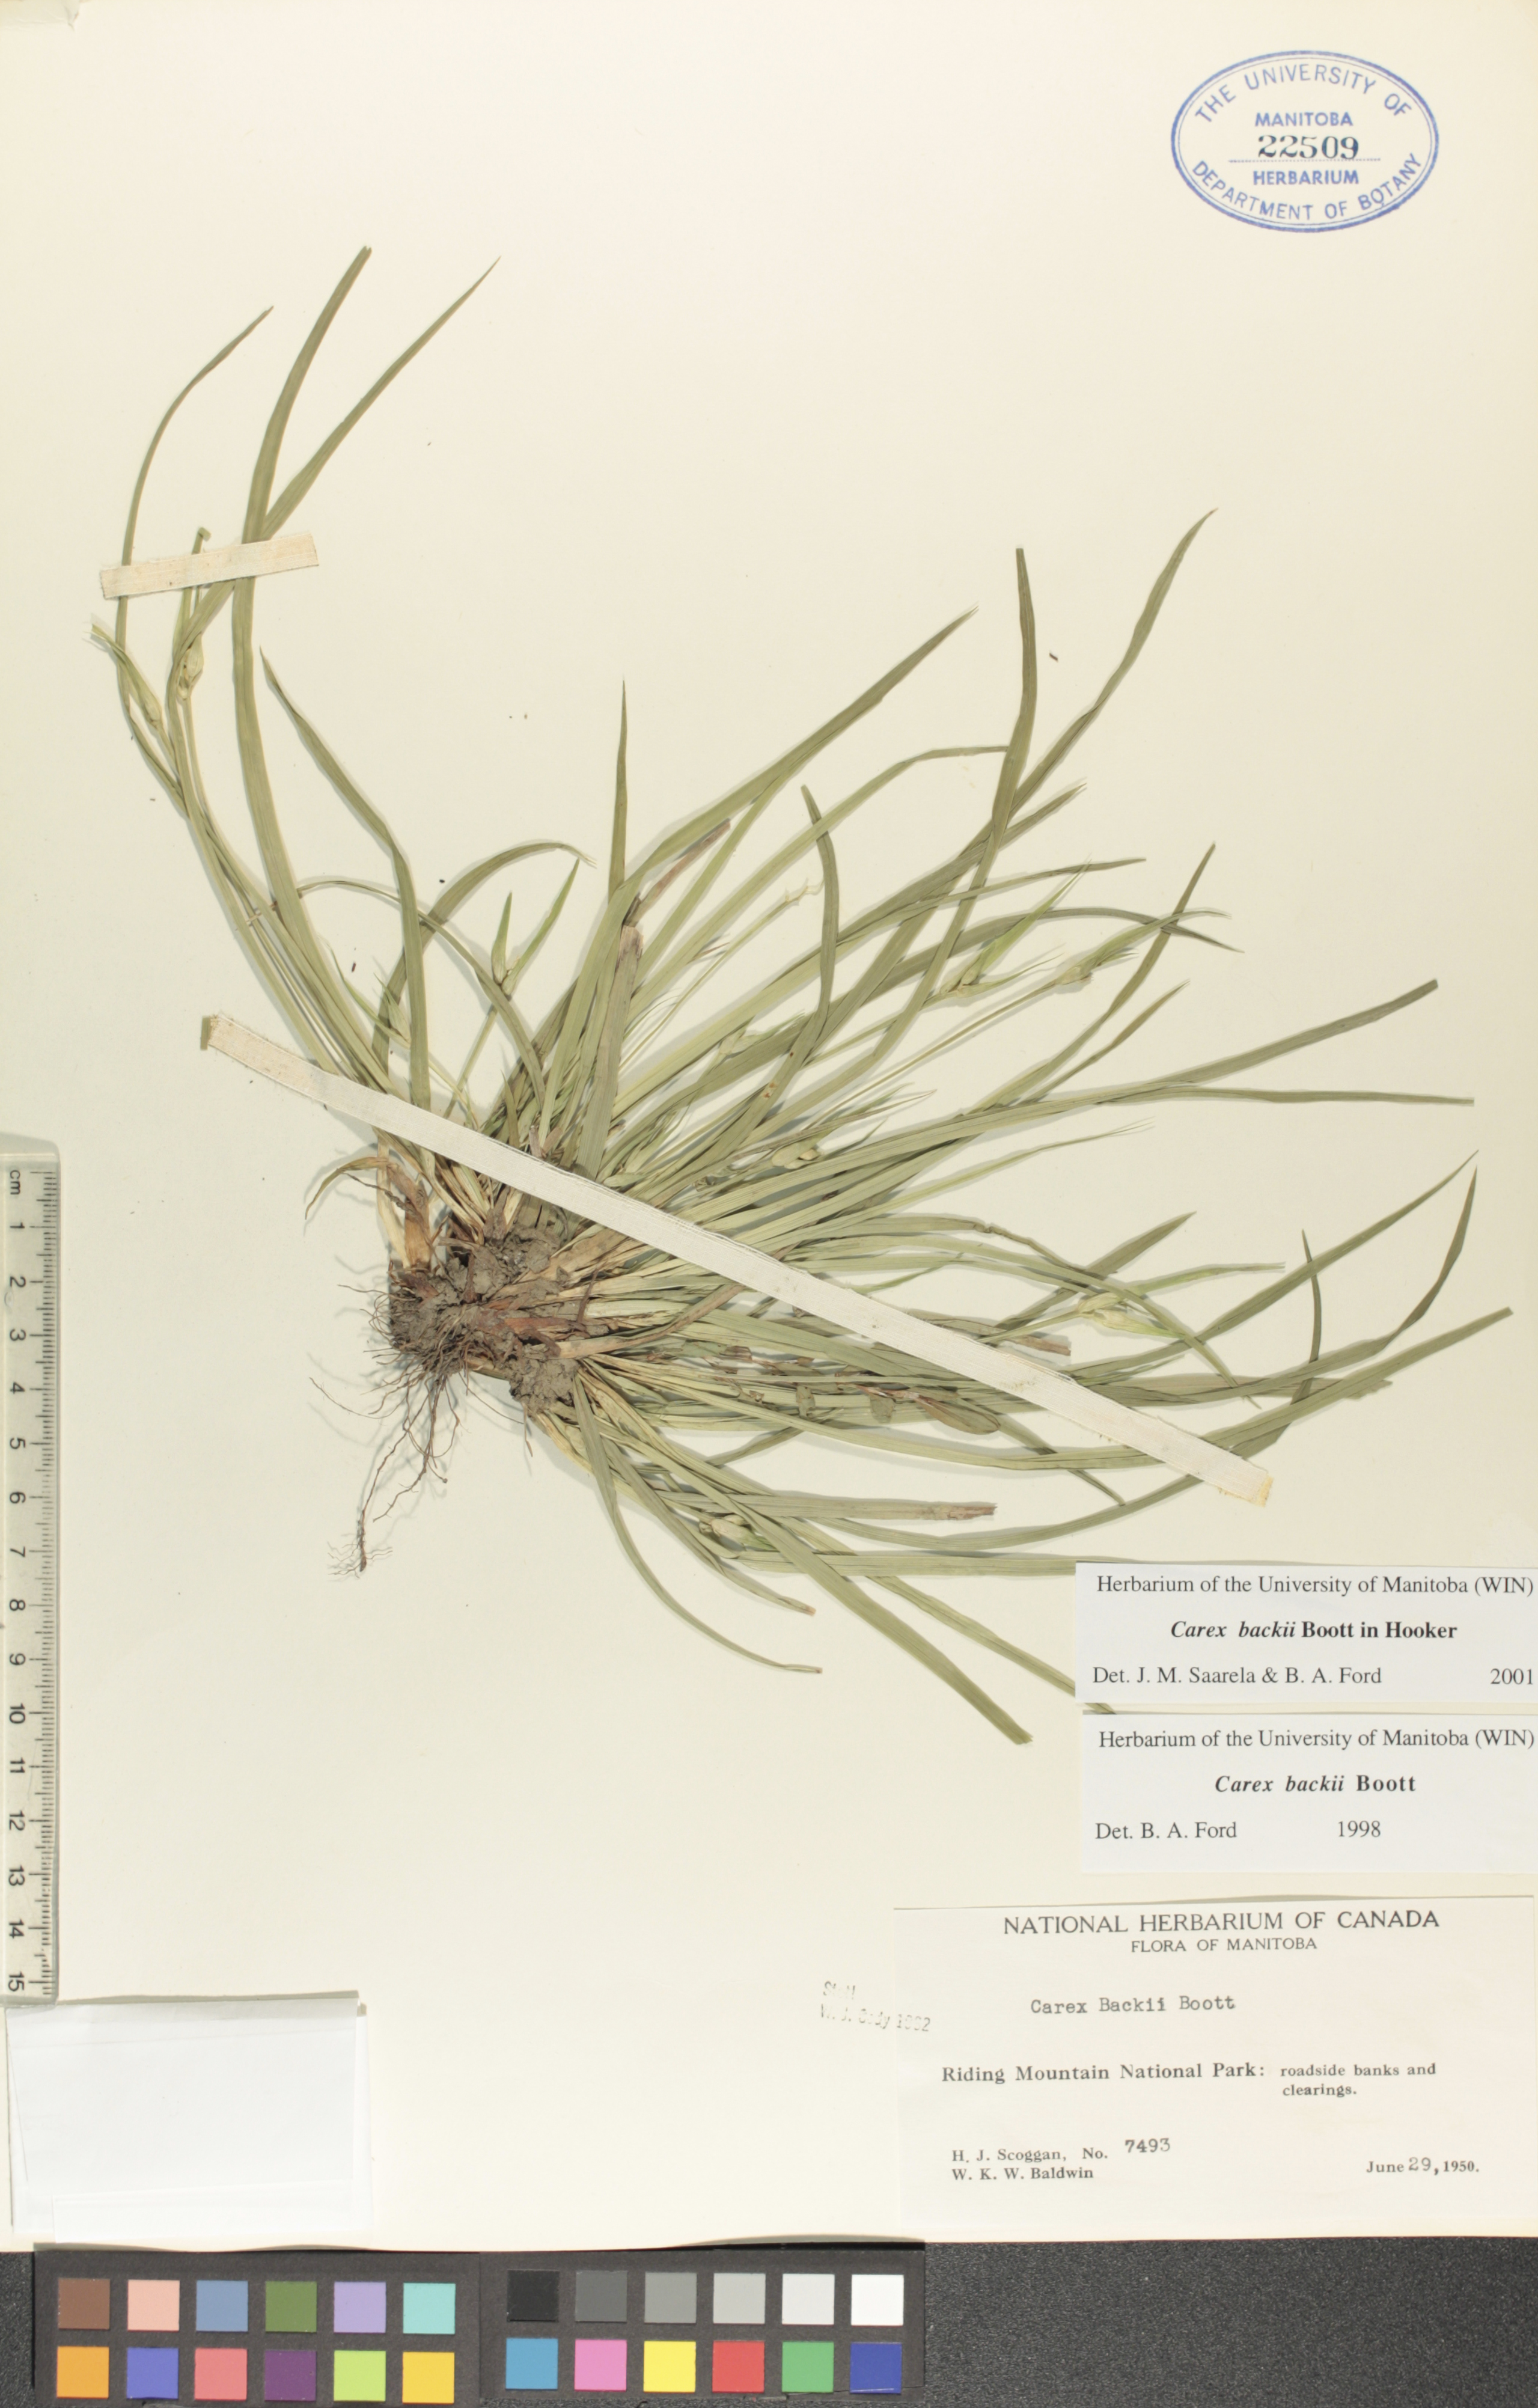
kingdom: Plantae
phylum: Tracheophyta
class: Liliopsida
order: Poales
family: Cyperaceae
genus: Carex
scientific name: Carex backii
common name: Back's sedge
